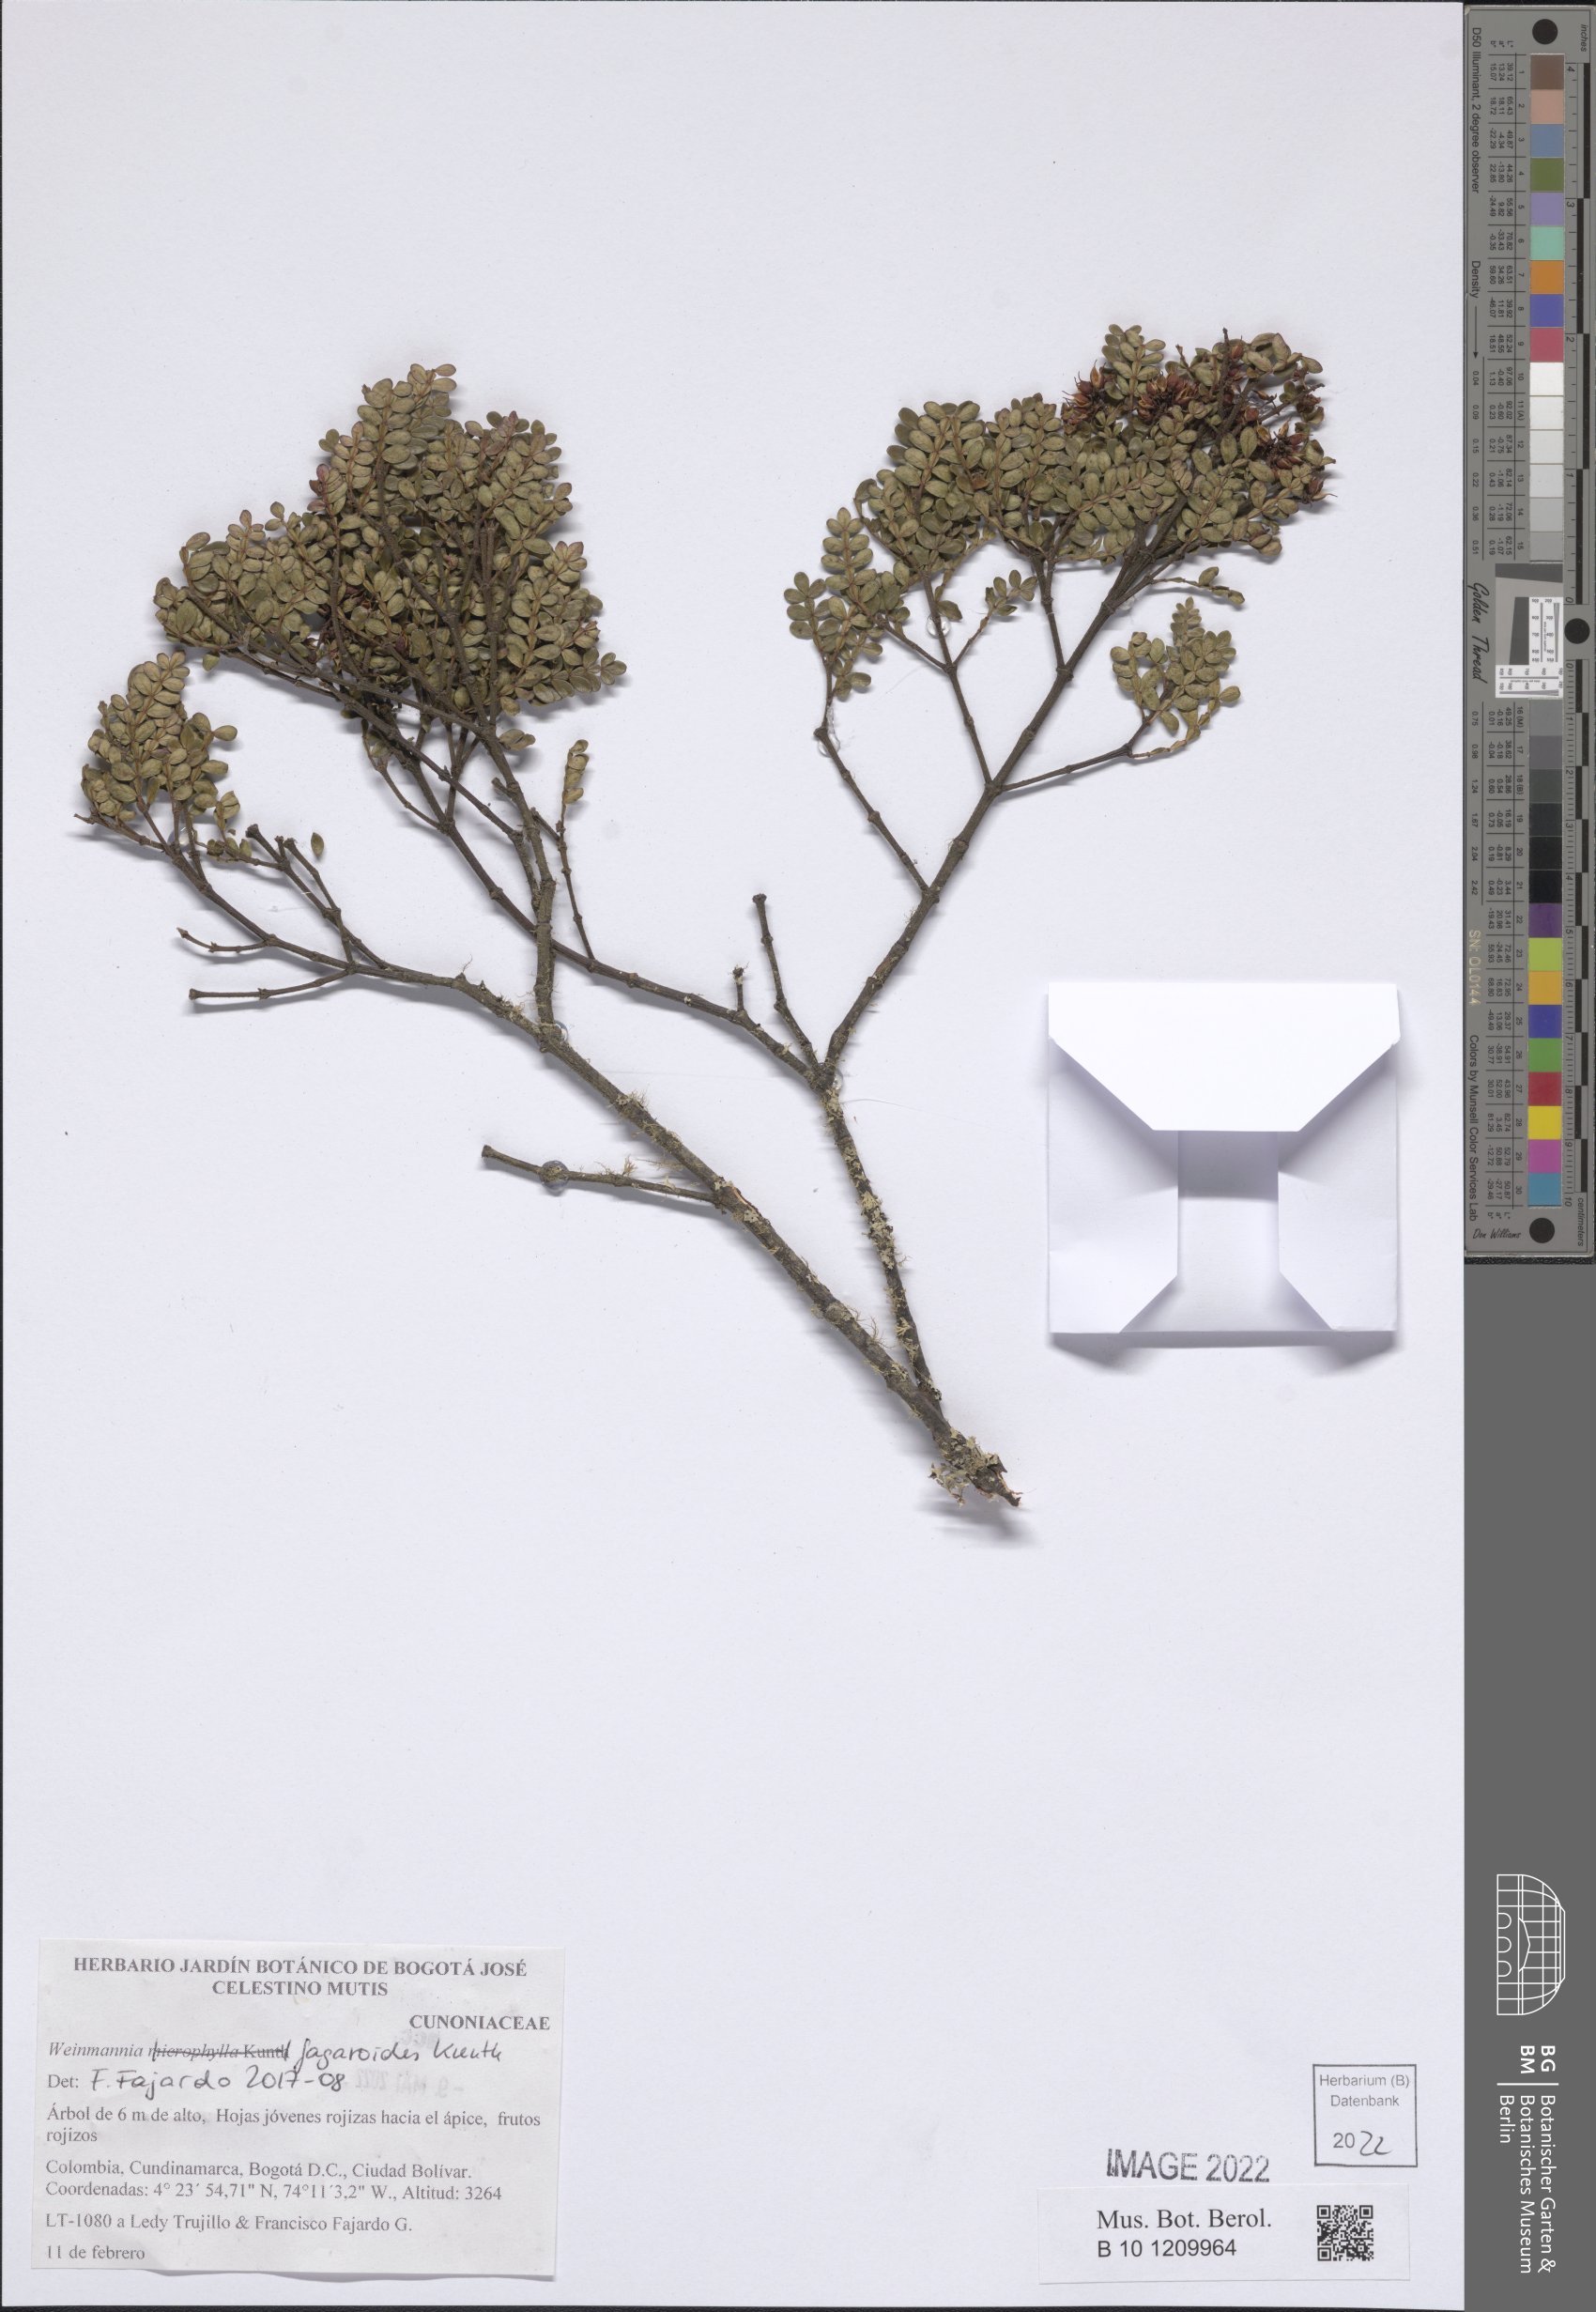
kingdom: Plantae
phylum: Tracheophyta
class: Magnoliopsida
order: Oxalidales
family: Cunoniaceae
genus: Weinmannia
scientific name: Weinmannia fagaroides
